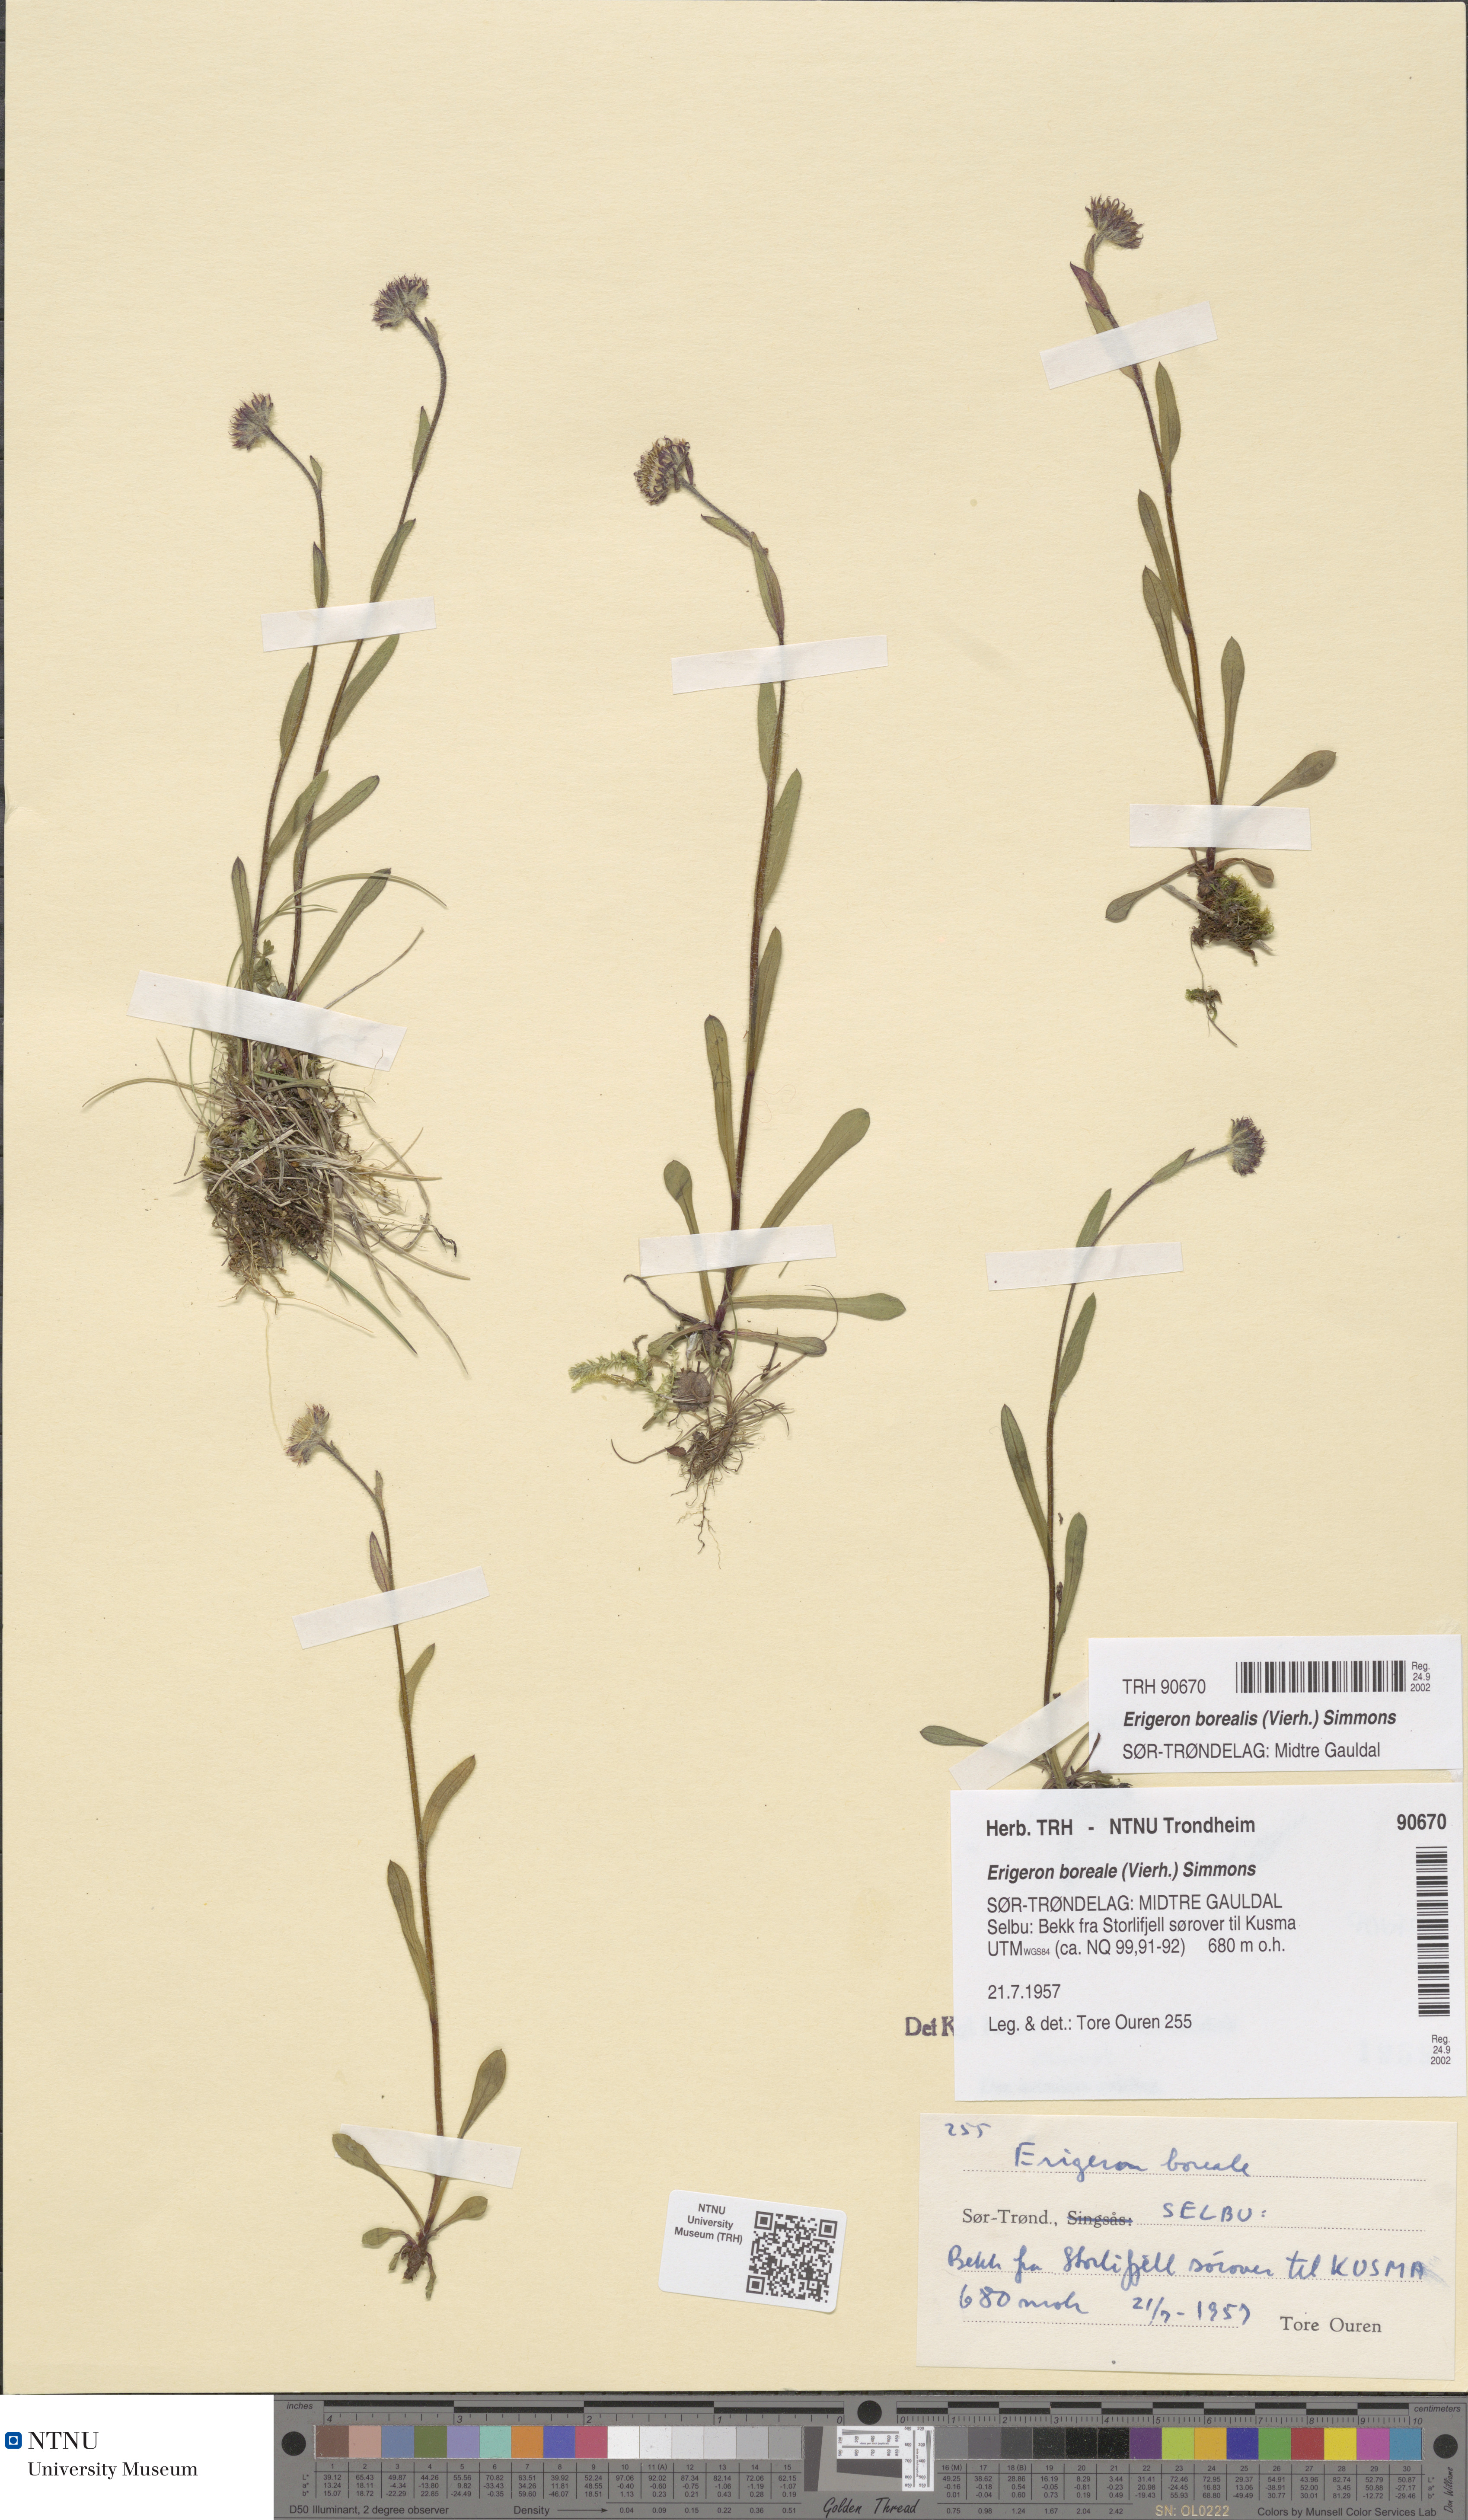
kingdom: Plantae
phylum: Tracheophyta
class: Magnoliopsida
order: Asterales
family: Asteraceae
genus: Erigeron
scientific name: Erigeron borealis
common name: Alpine fleabane
